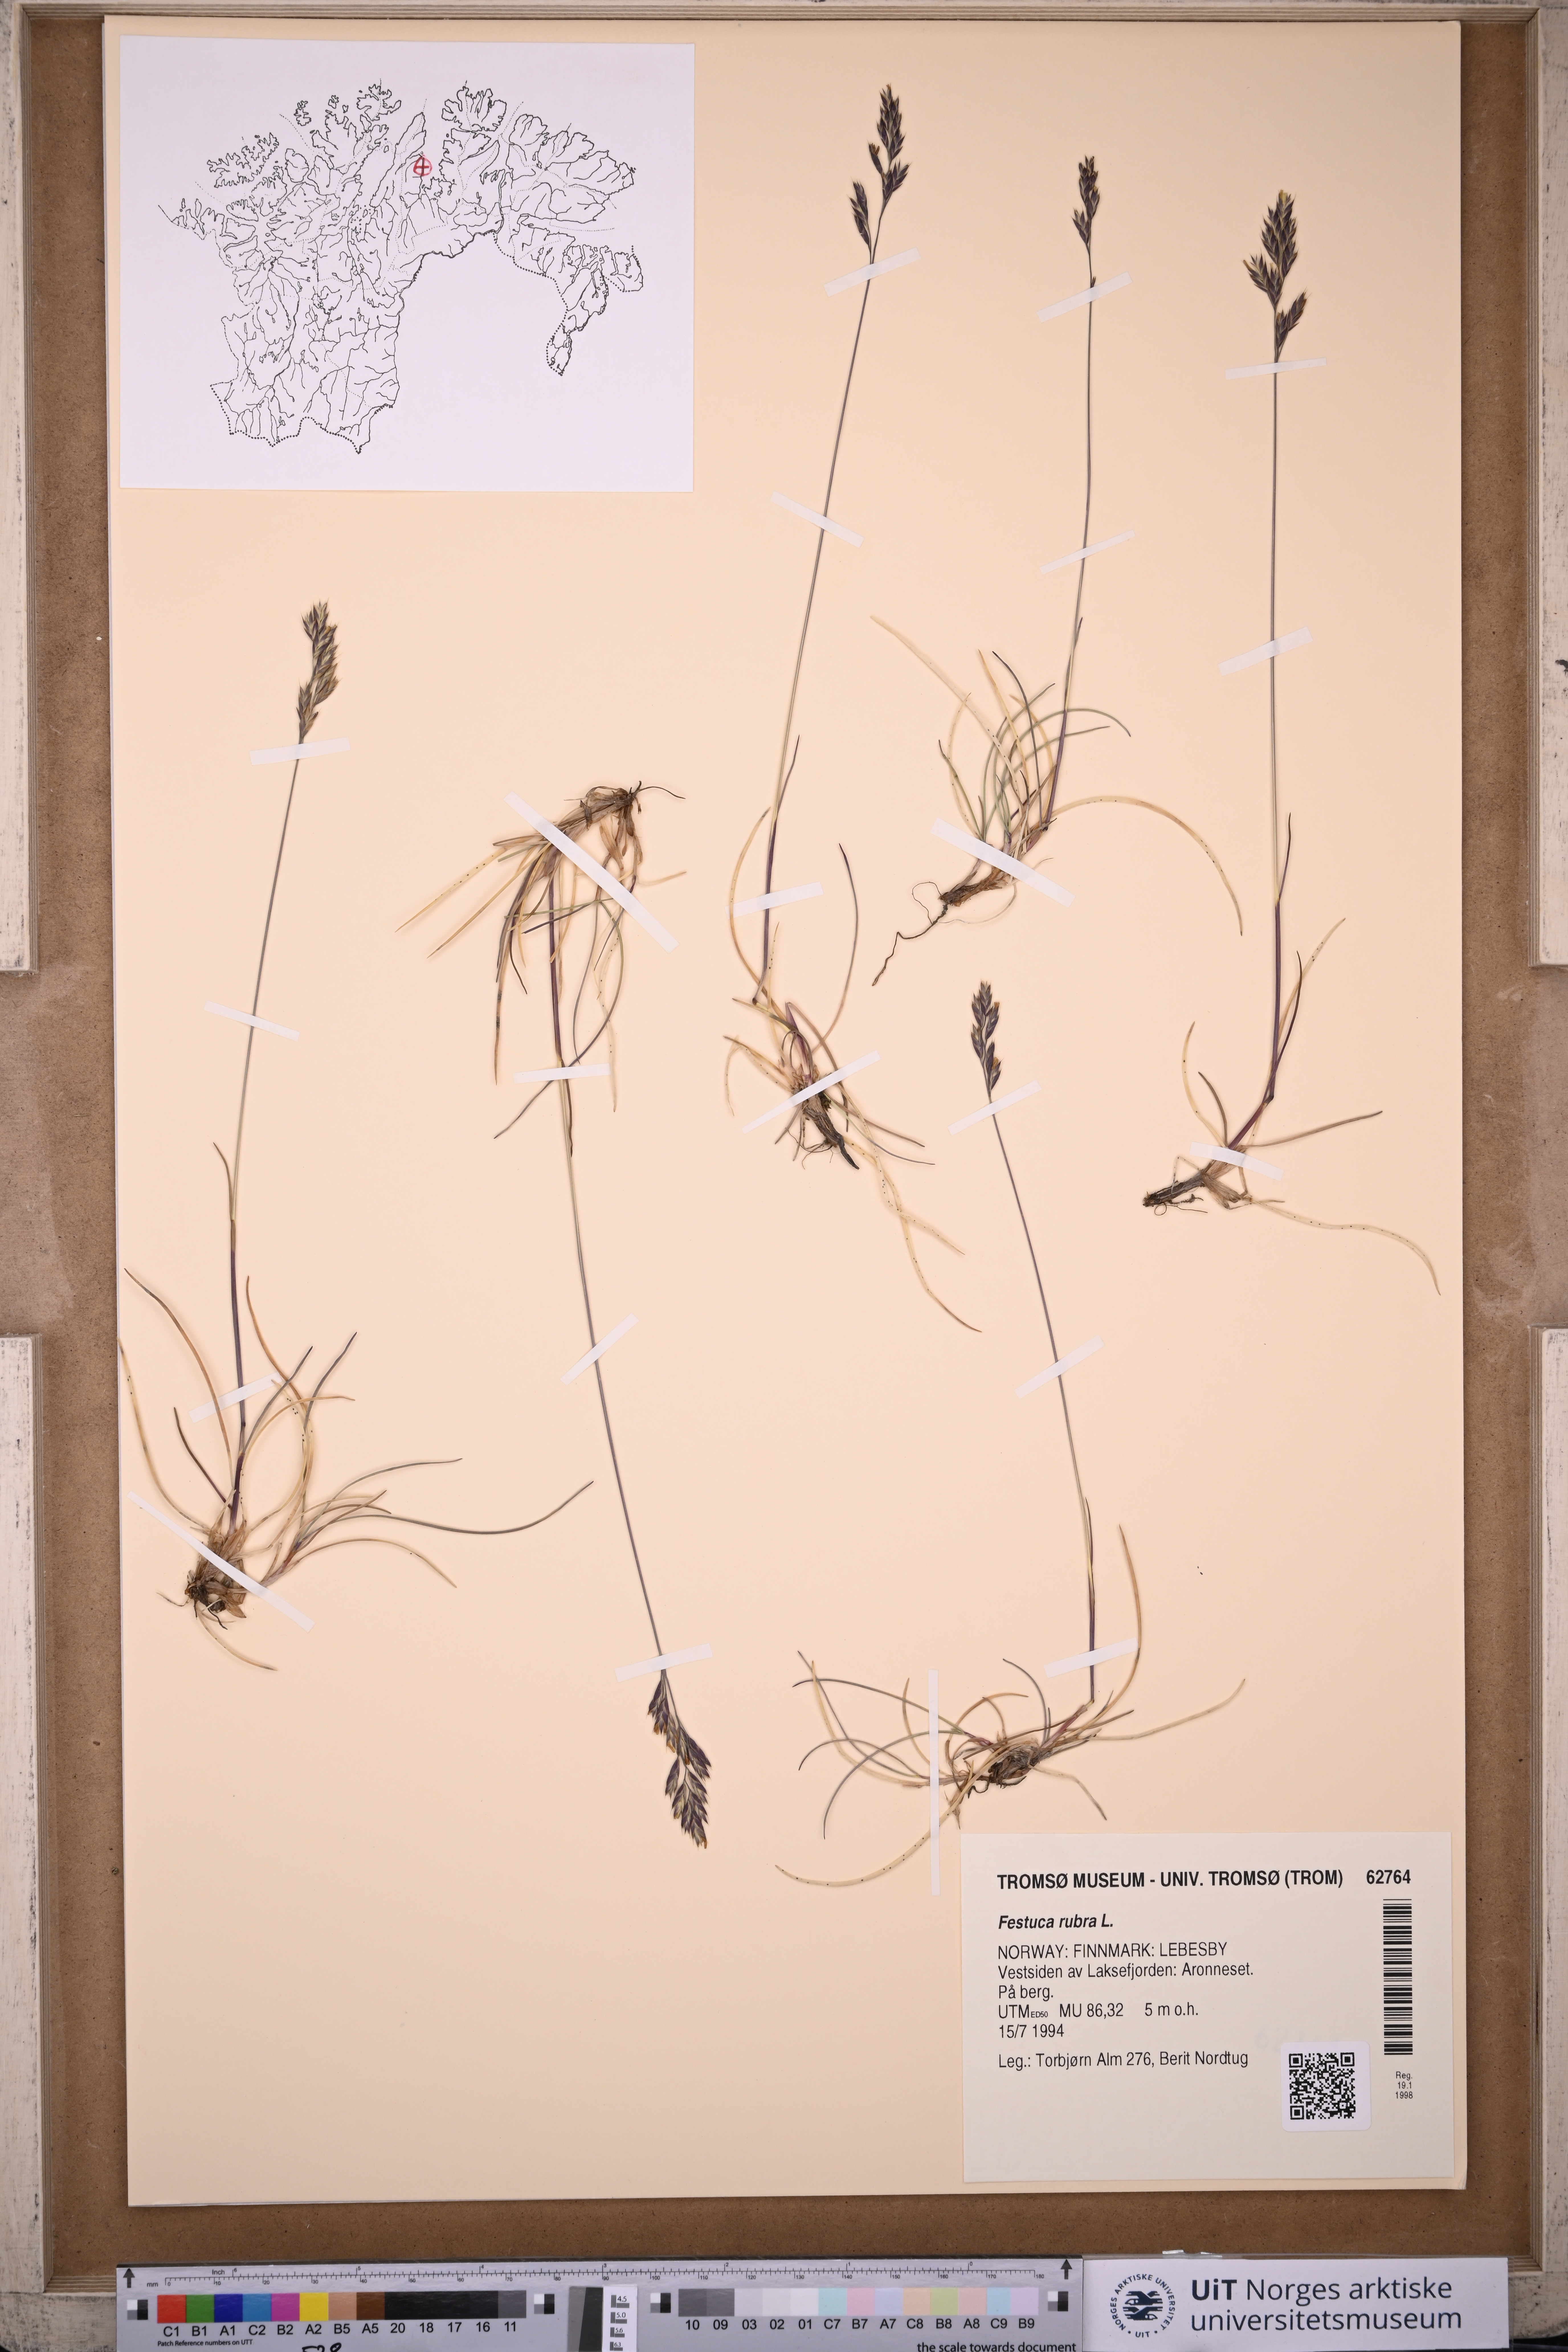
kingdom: Plantae
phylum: Tracheophyta
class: Liliopsida
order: Poales
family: Poaceae
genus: Festuca
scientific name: Festuca rubra
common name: Red fescue
